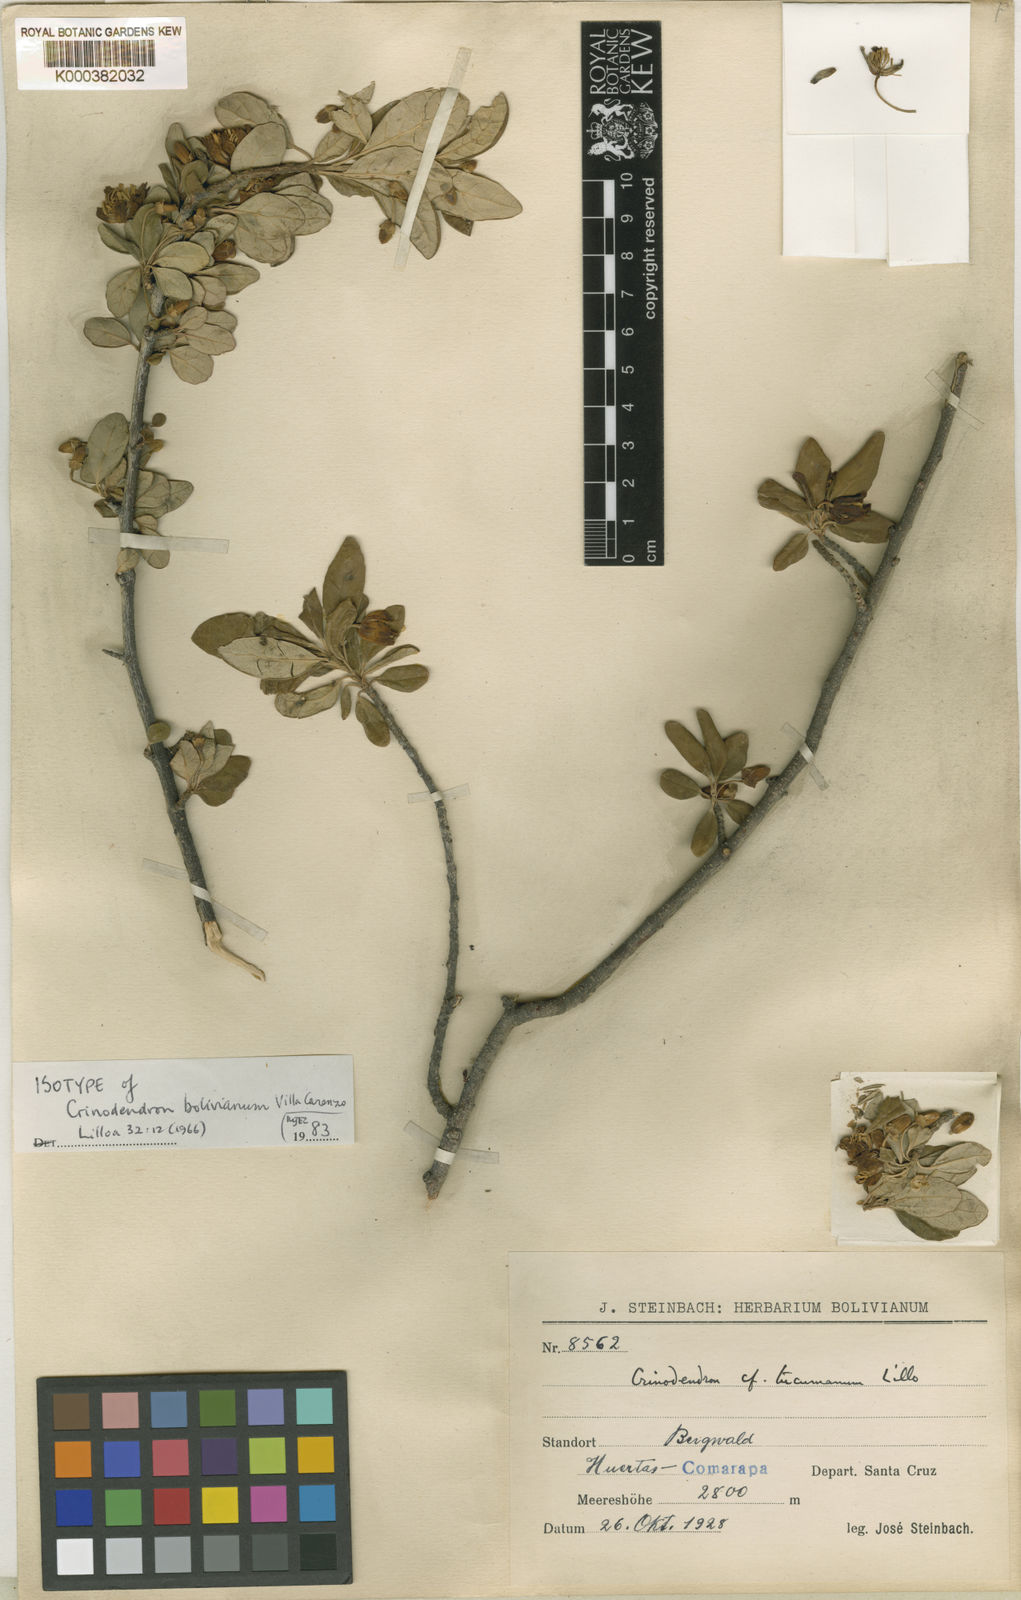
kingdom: Plantae
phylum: Tracheophyta
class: Magnoliopsida
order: Oxalidales
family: Elaeocarpaceae
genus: Crinodendron
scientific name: Crinodendron
